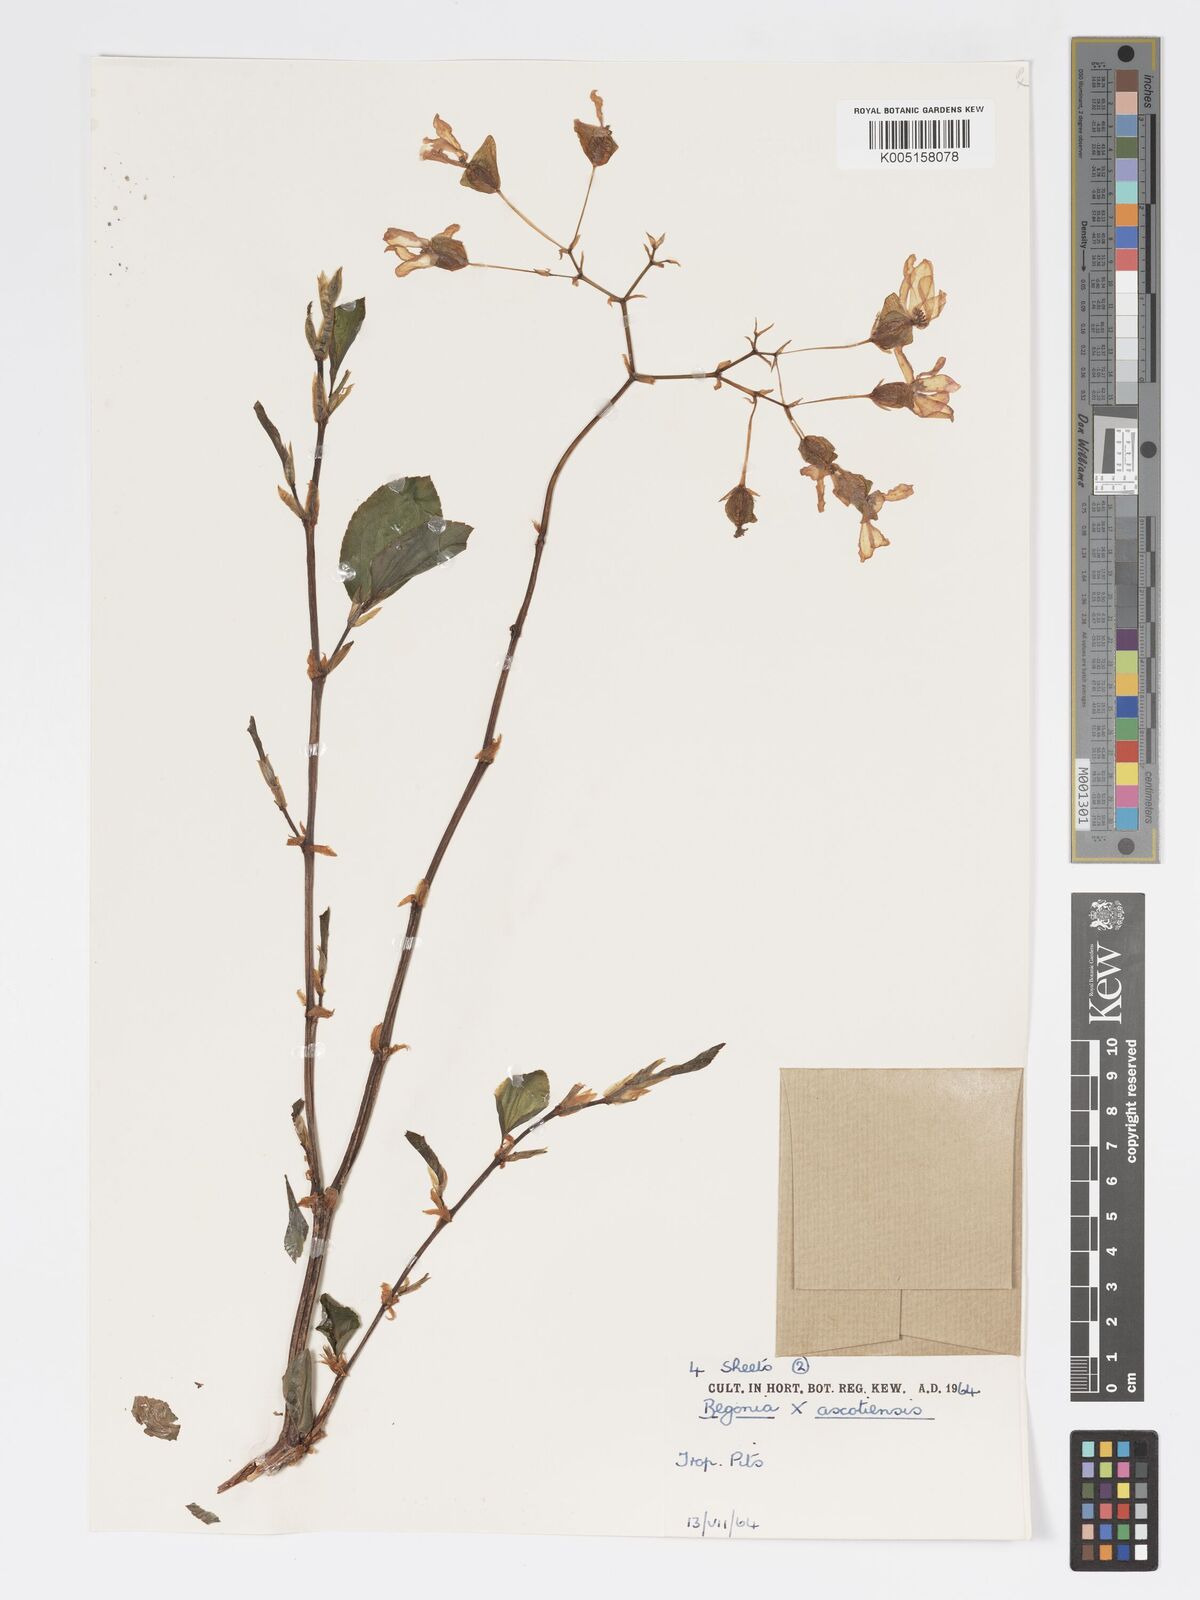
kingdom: Plantae
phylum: Tracheophyta
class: Magnoliopsida
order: Cucurbitales
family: Begoniaceae
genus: Begonia
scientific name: Begonia ascotiensis
